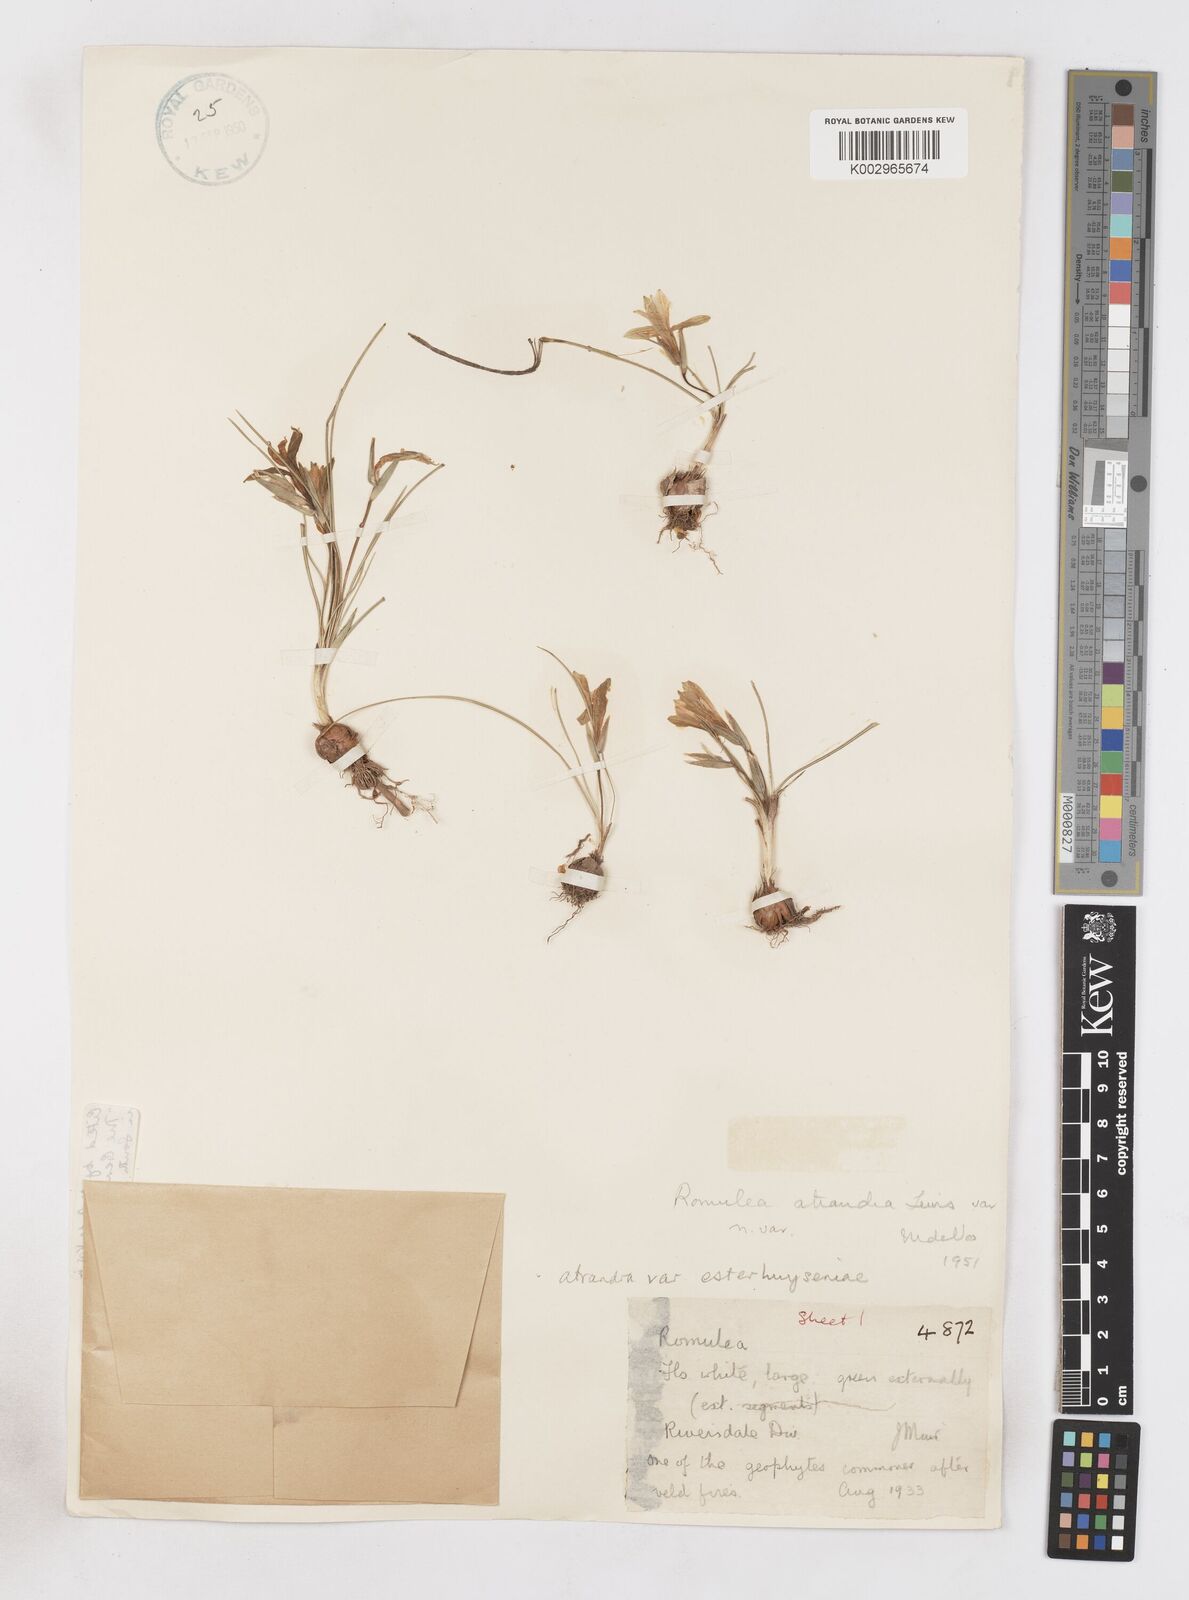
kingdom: Plantae
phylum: Tracheophyta
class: Liliopsida
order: Asparagales
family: Iridaceae
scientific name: Iridaceae
